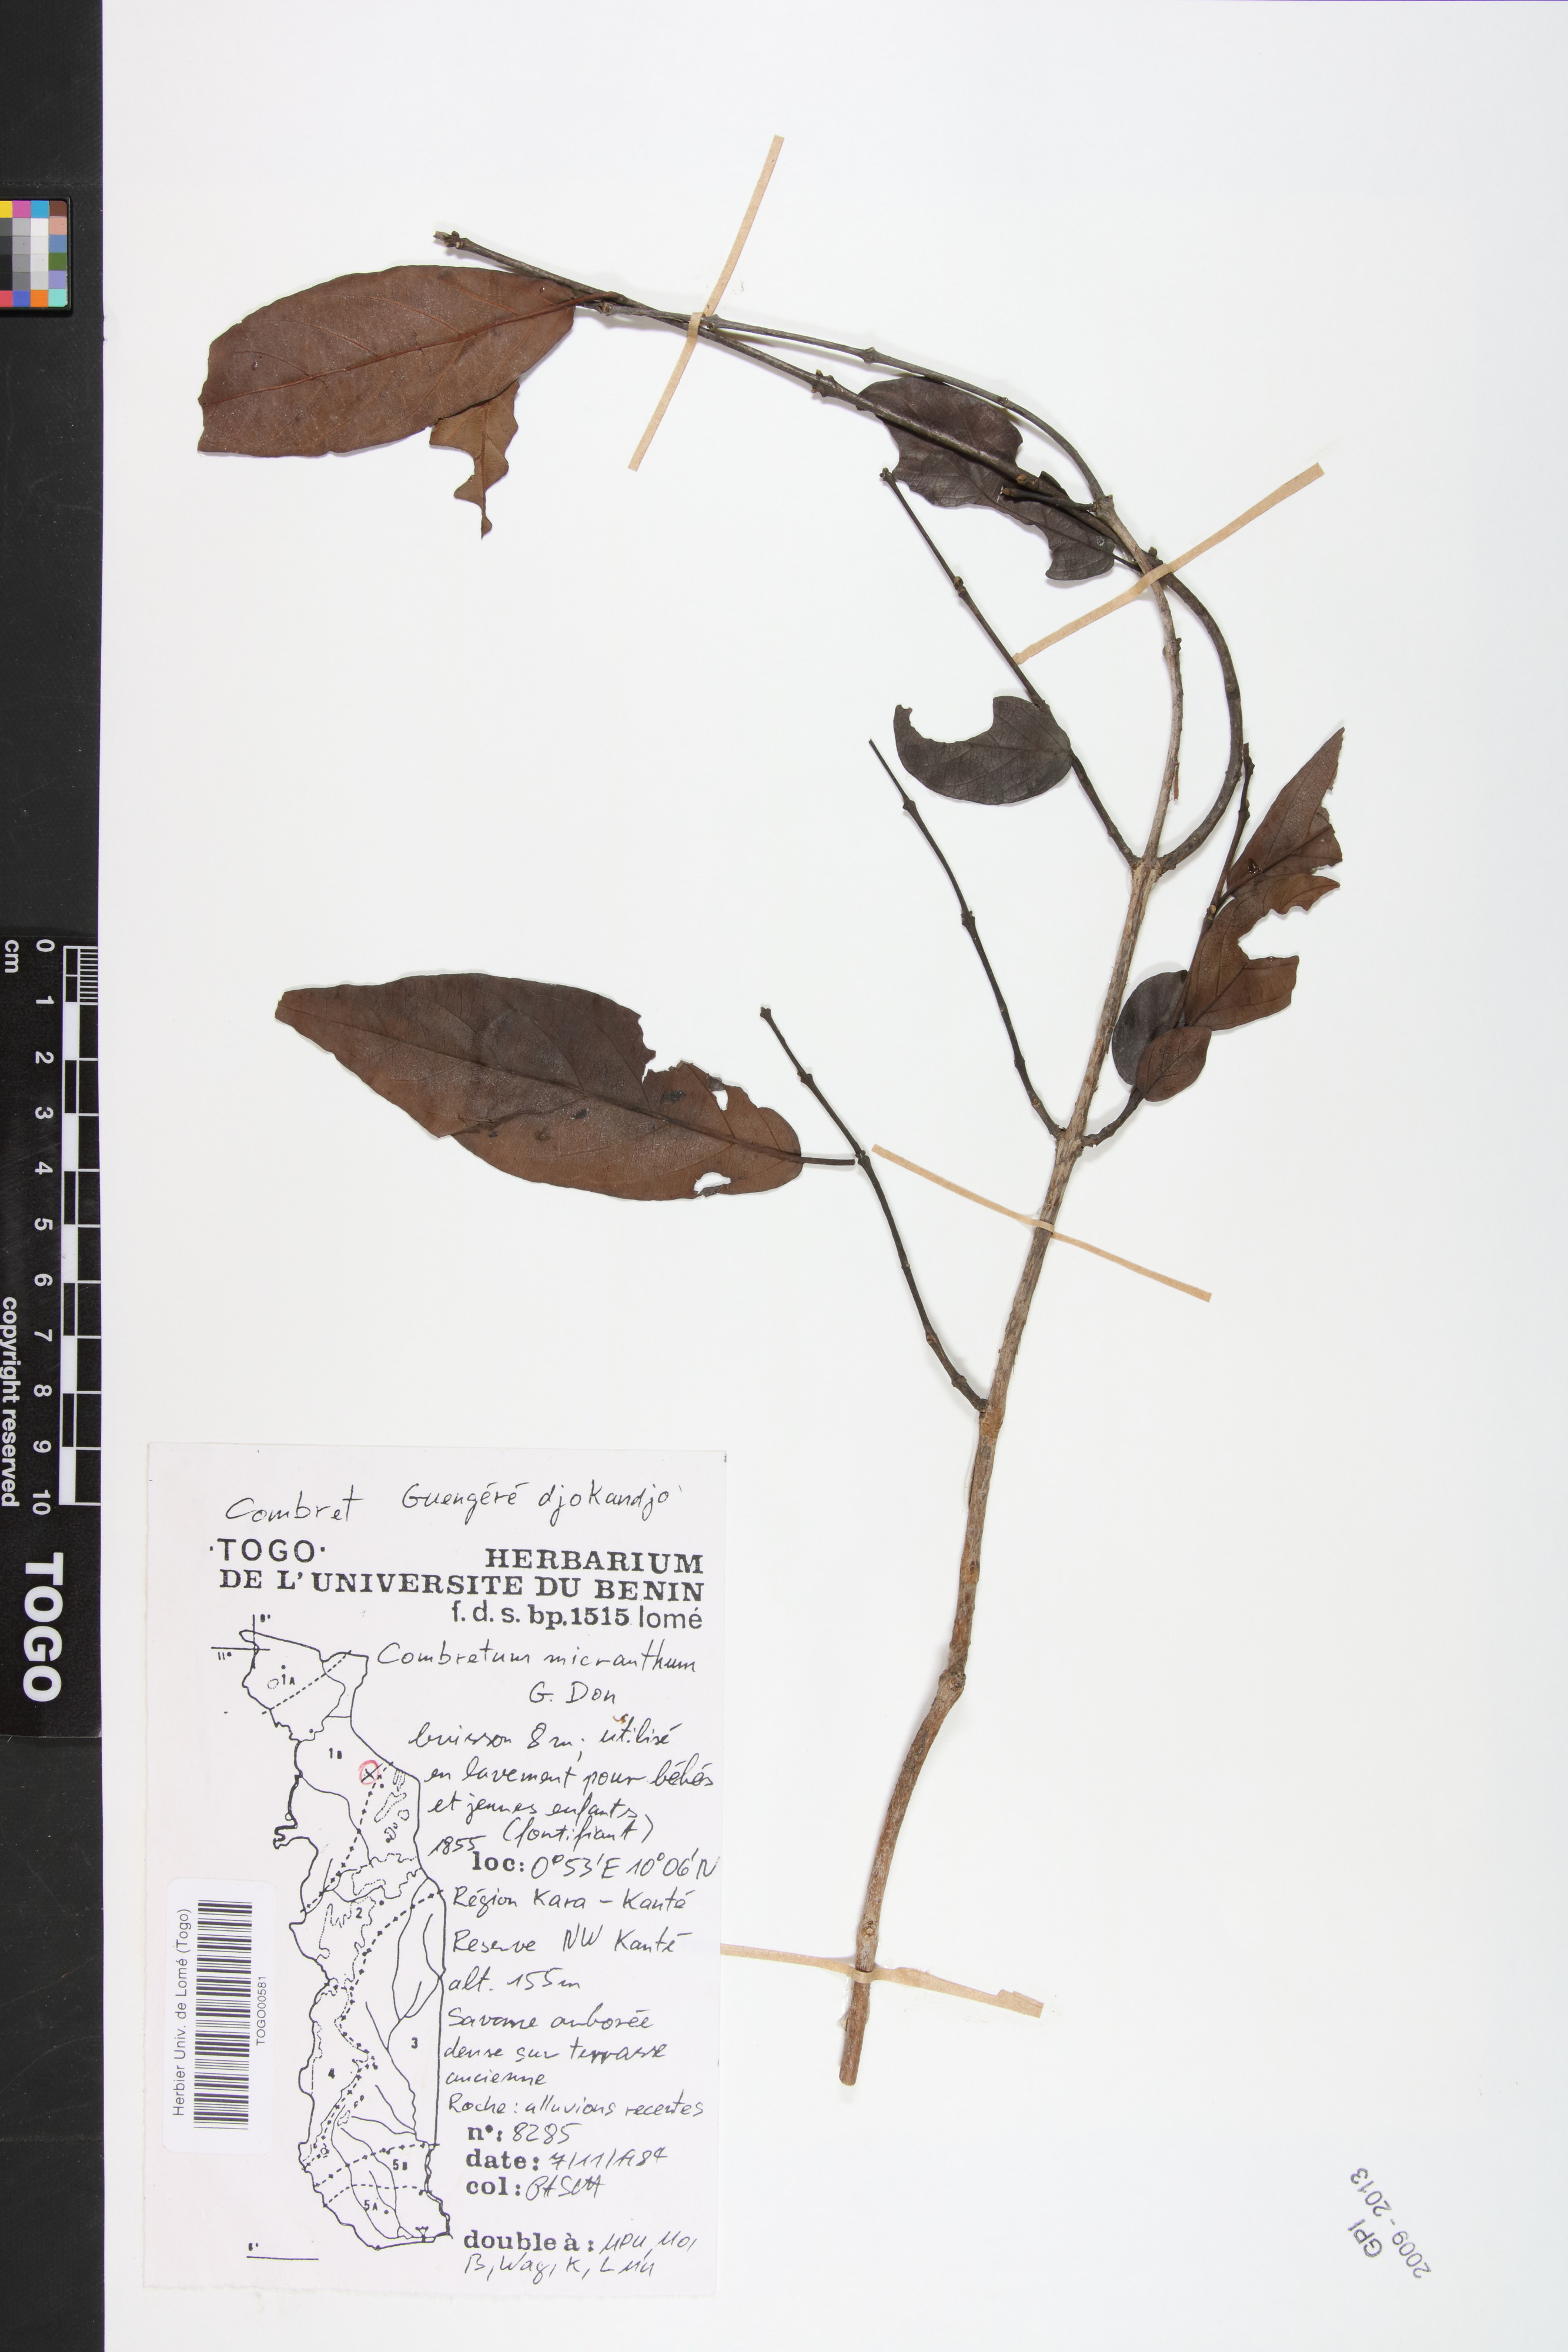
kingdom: Plantae
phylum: Tracheophyta
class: Magnoliopsida
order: Myrtales
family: Combretaceae
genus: Combretum
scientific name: Combretum micranthum
